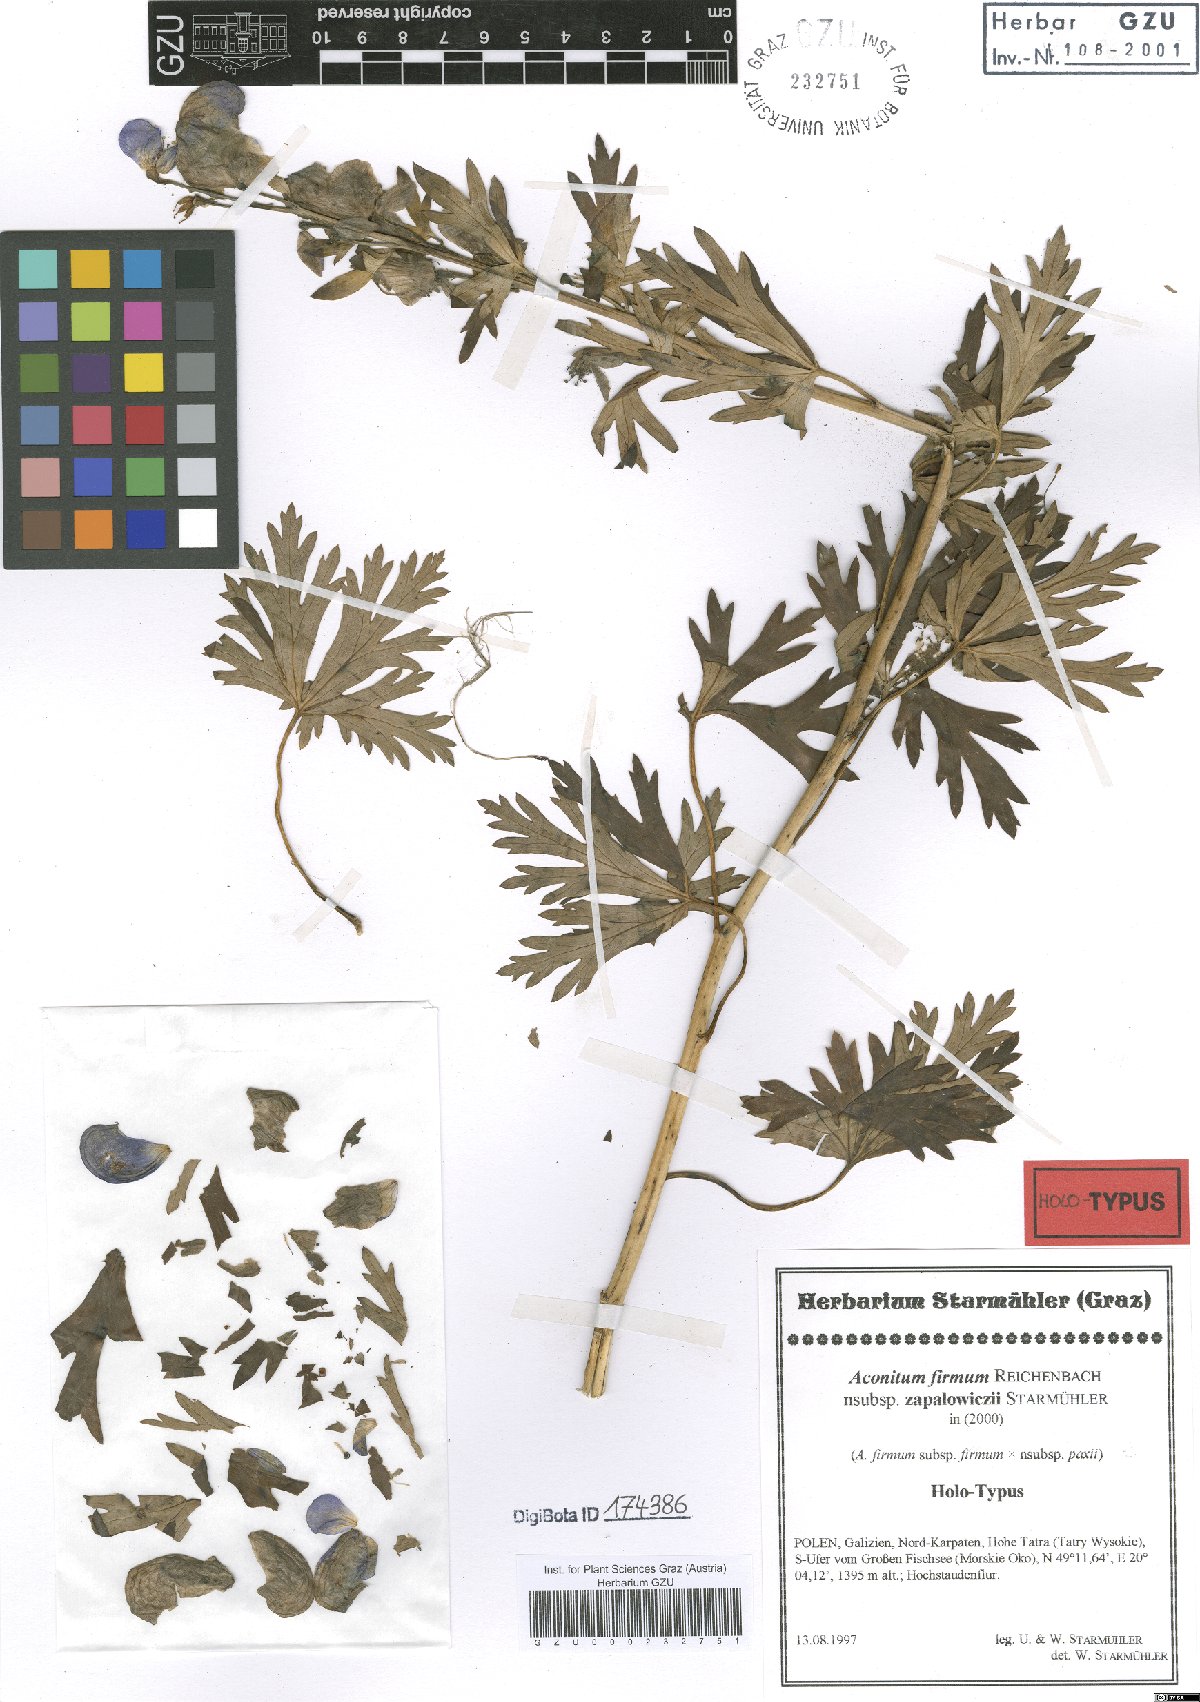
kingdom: Plantae
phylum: Tracheophyta
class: Magnoliopsida
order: Ranunculales
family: Ranunculaceae
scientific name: Ranunculaceae
